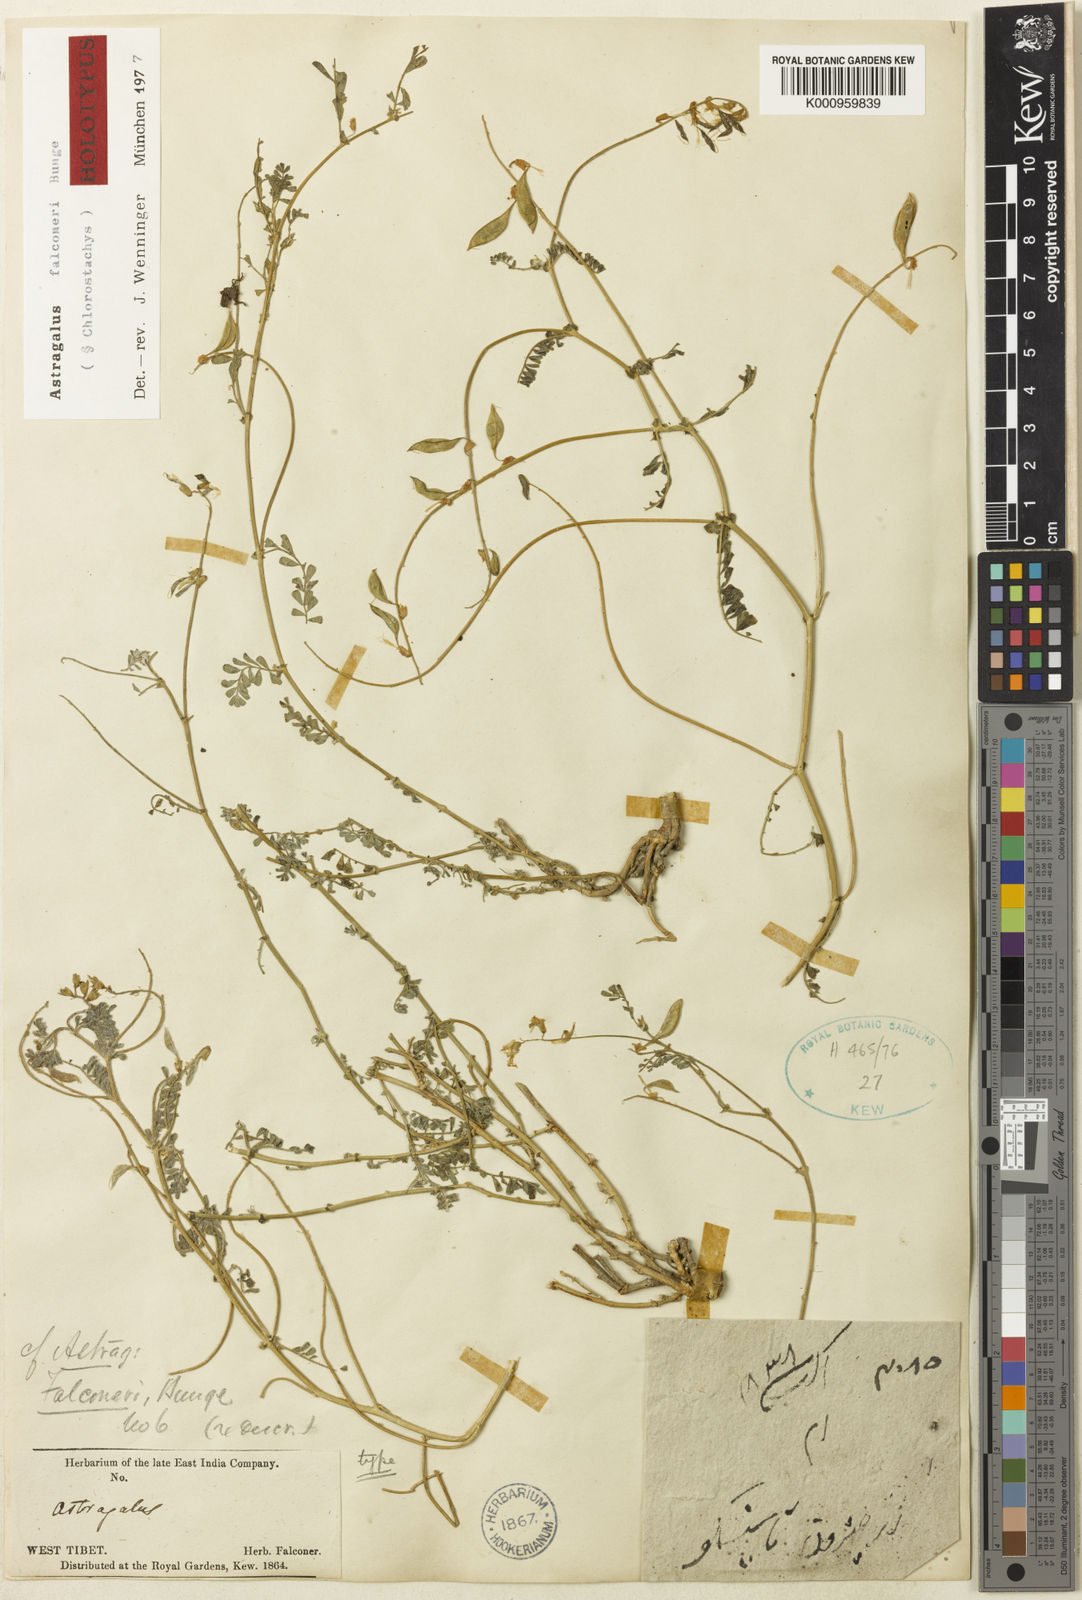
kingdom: Plantae
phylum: Tracheophyta
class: Magnoliopsida
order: Fabales
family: Fabaceae
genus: Astragalus
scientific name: Astragalus
